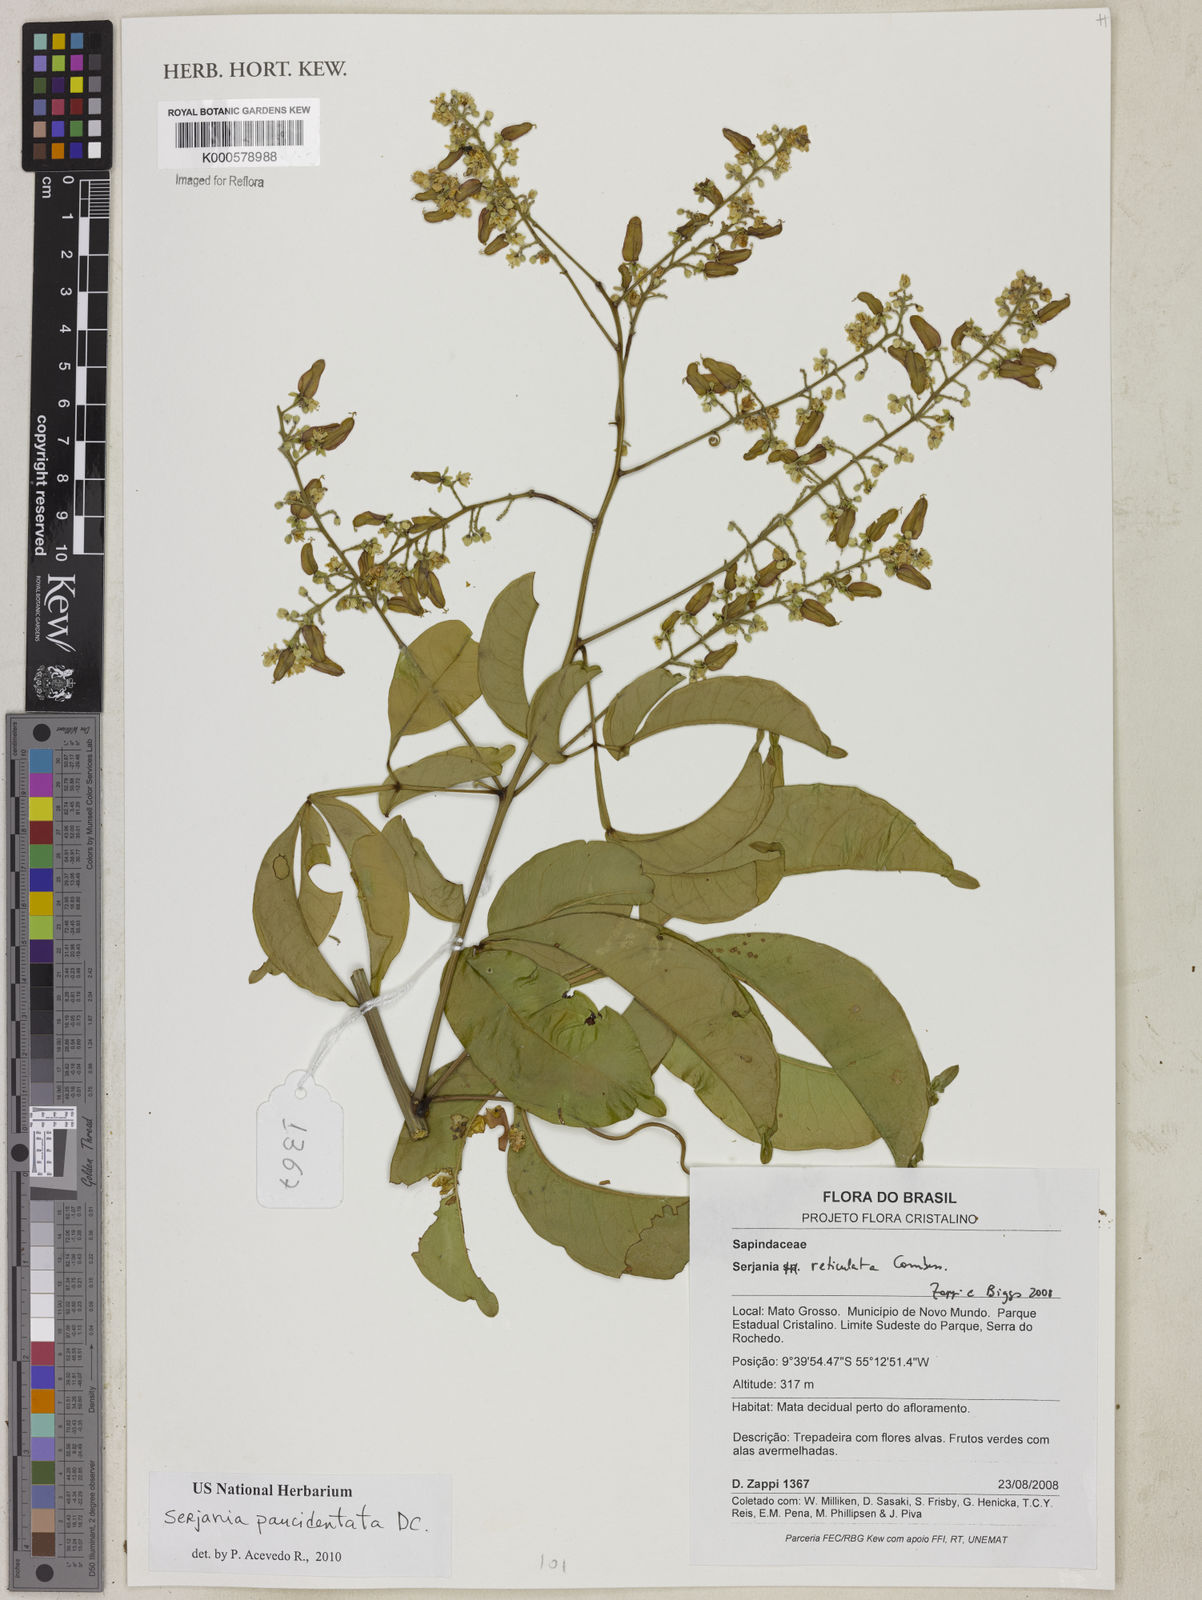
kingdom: Plantae
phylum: Tracheophyta
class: Magnoliopsida
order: Sapindales
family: Sapindaceae
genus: Serjania
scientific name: Serjania paucidentata
